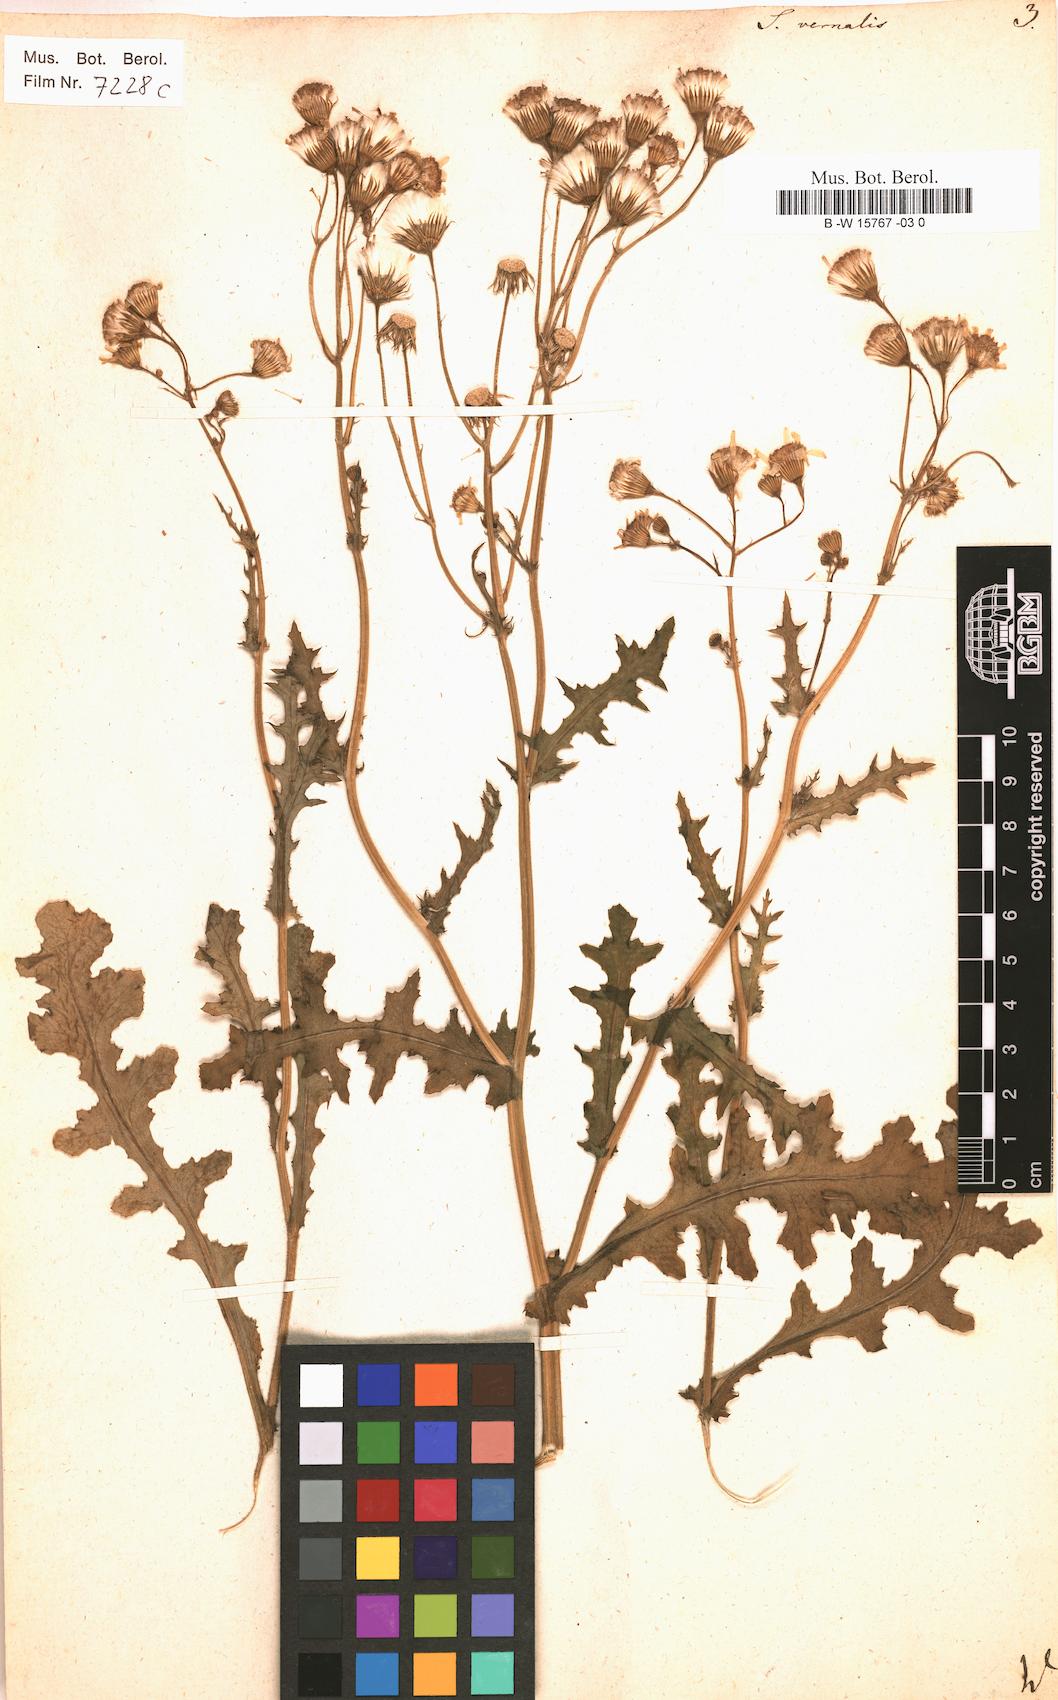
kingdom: Plantae
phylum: Tracheophyta
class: Magnoliopsida
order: Asterales
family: Asteraceae
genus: Senecio
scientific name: Senecio vernalis
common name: Eastern groundsel
